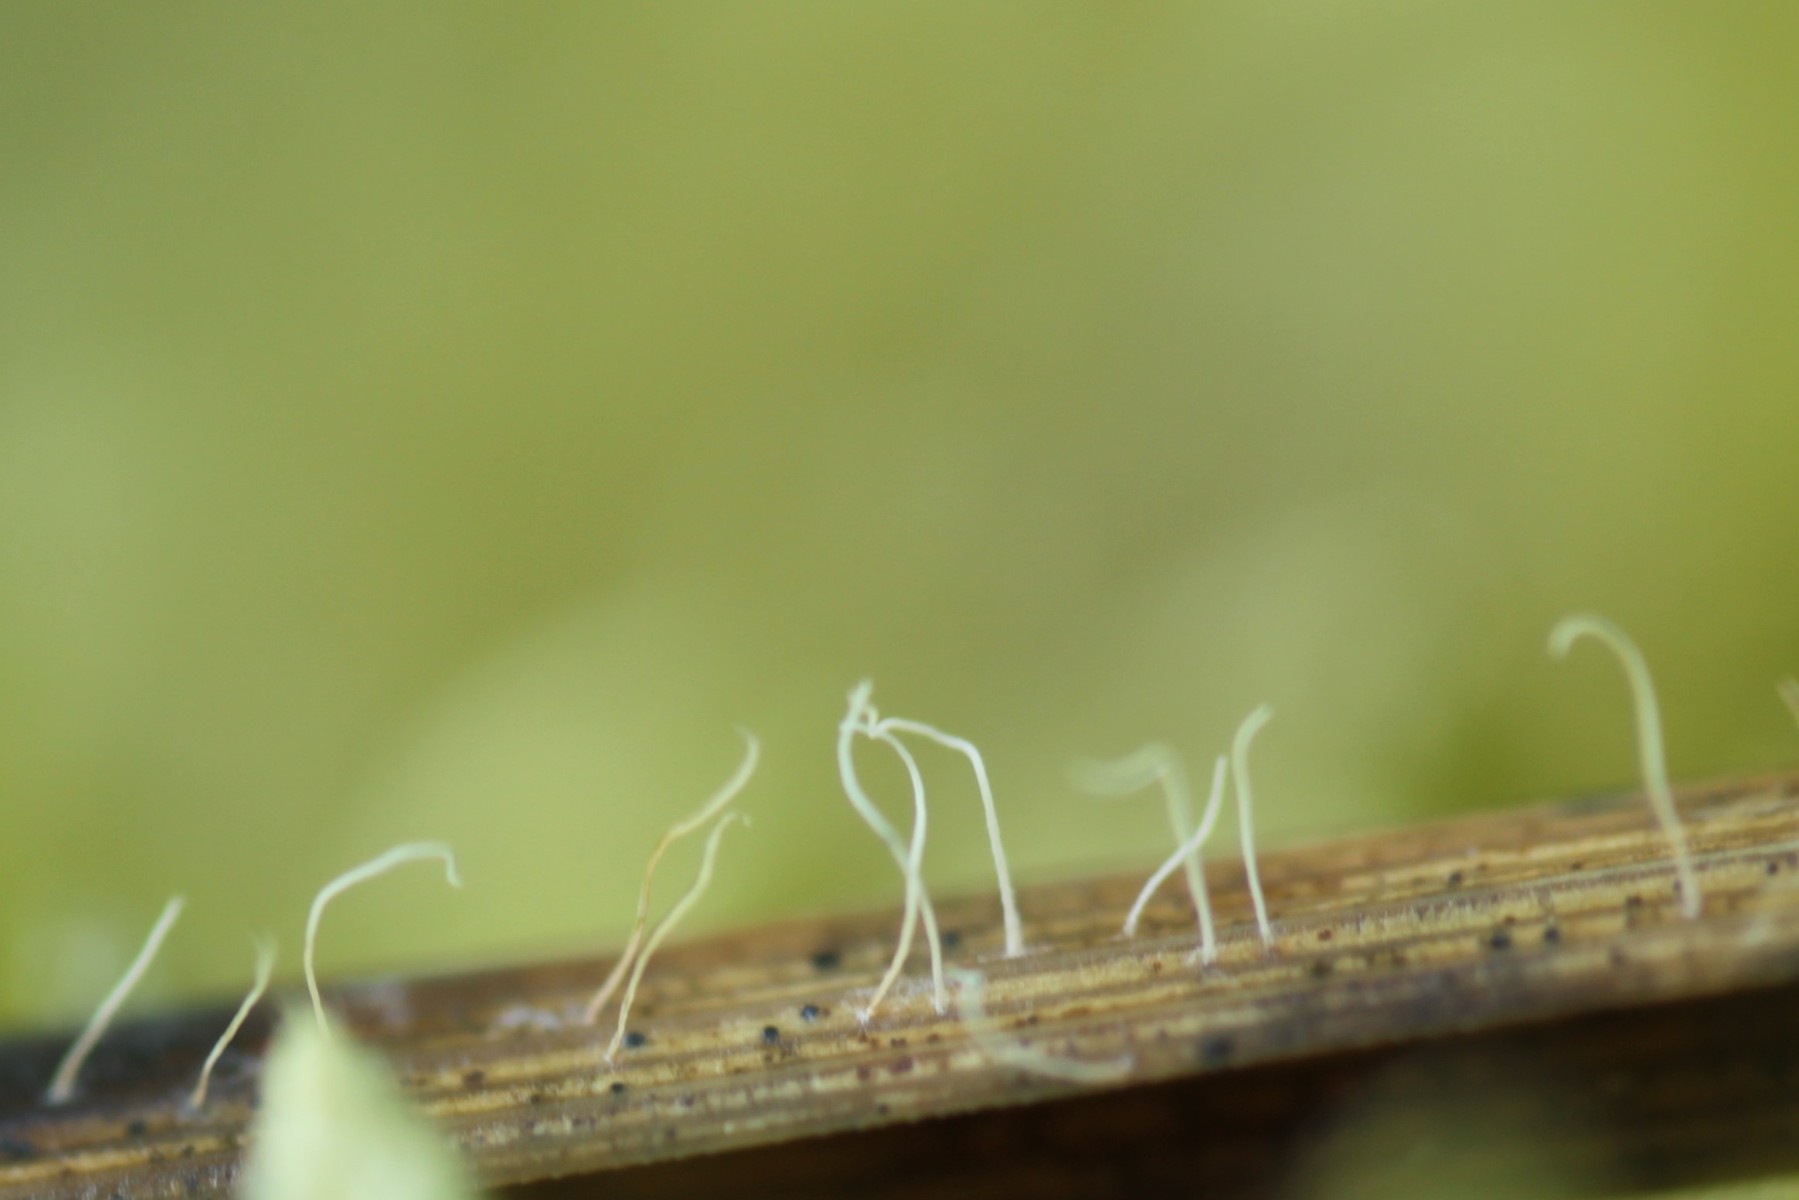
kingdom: Fungi
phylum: Basidiomycota
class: Agaricomycetes
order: Agaricales
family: Pterulaceae
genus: Pterulicium
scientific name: Pterulicium gracile
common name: trådformet fjerkølle
